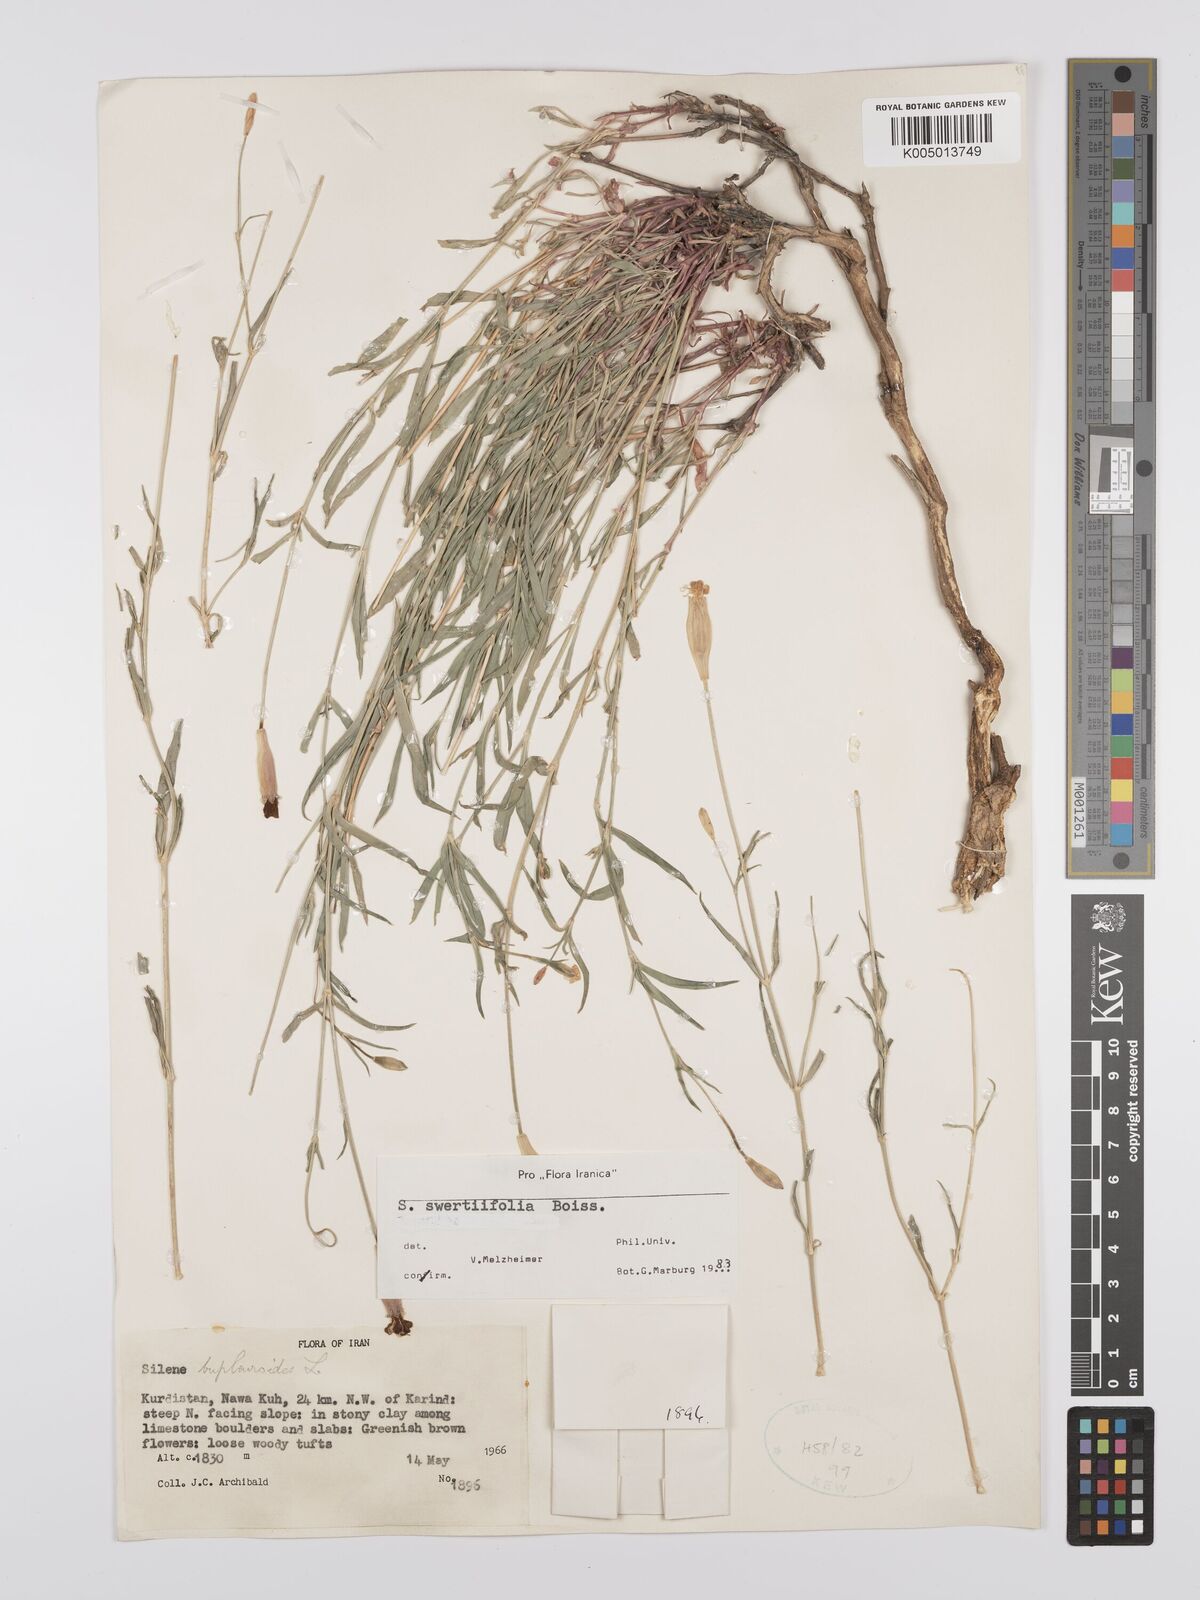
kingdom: Plantae
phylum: Tracheophyta
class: Magnoliopsida
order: Caryophyllales
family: Caryophyllaceae
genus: Silene
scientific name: Silene swertiifolia
